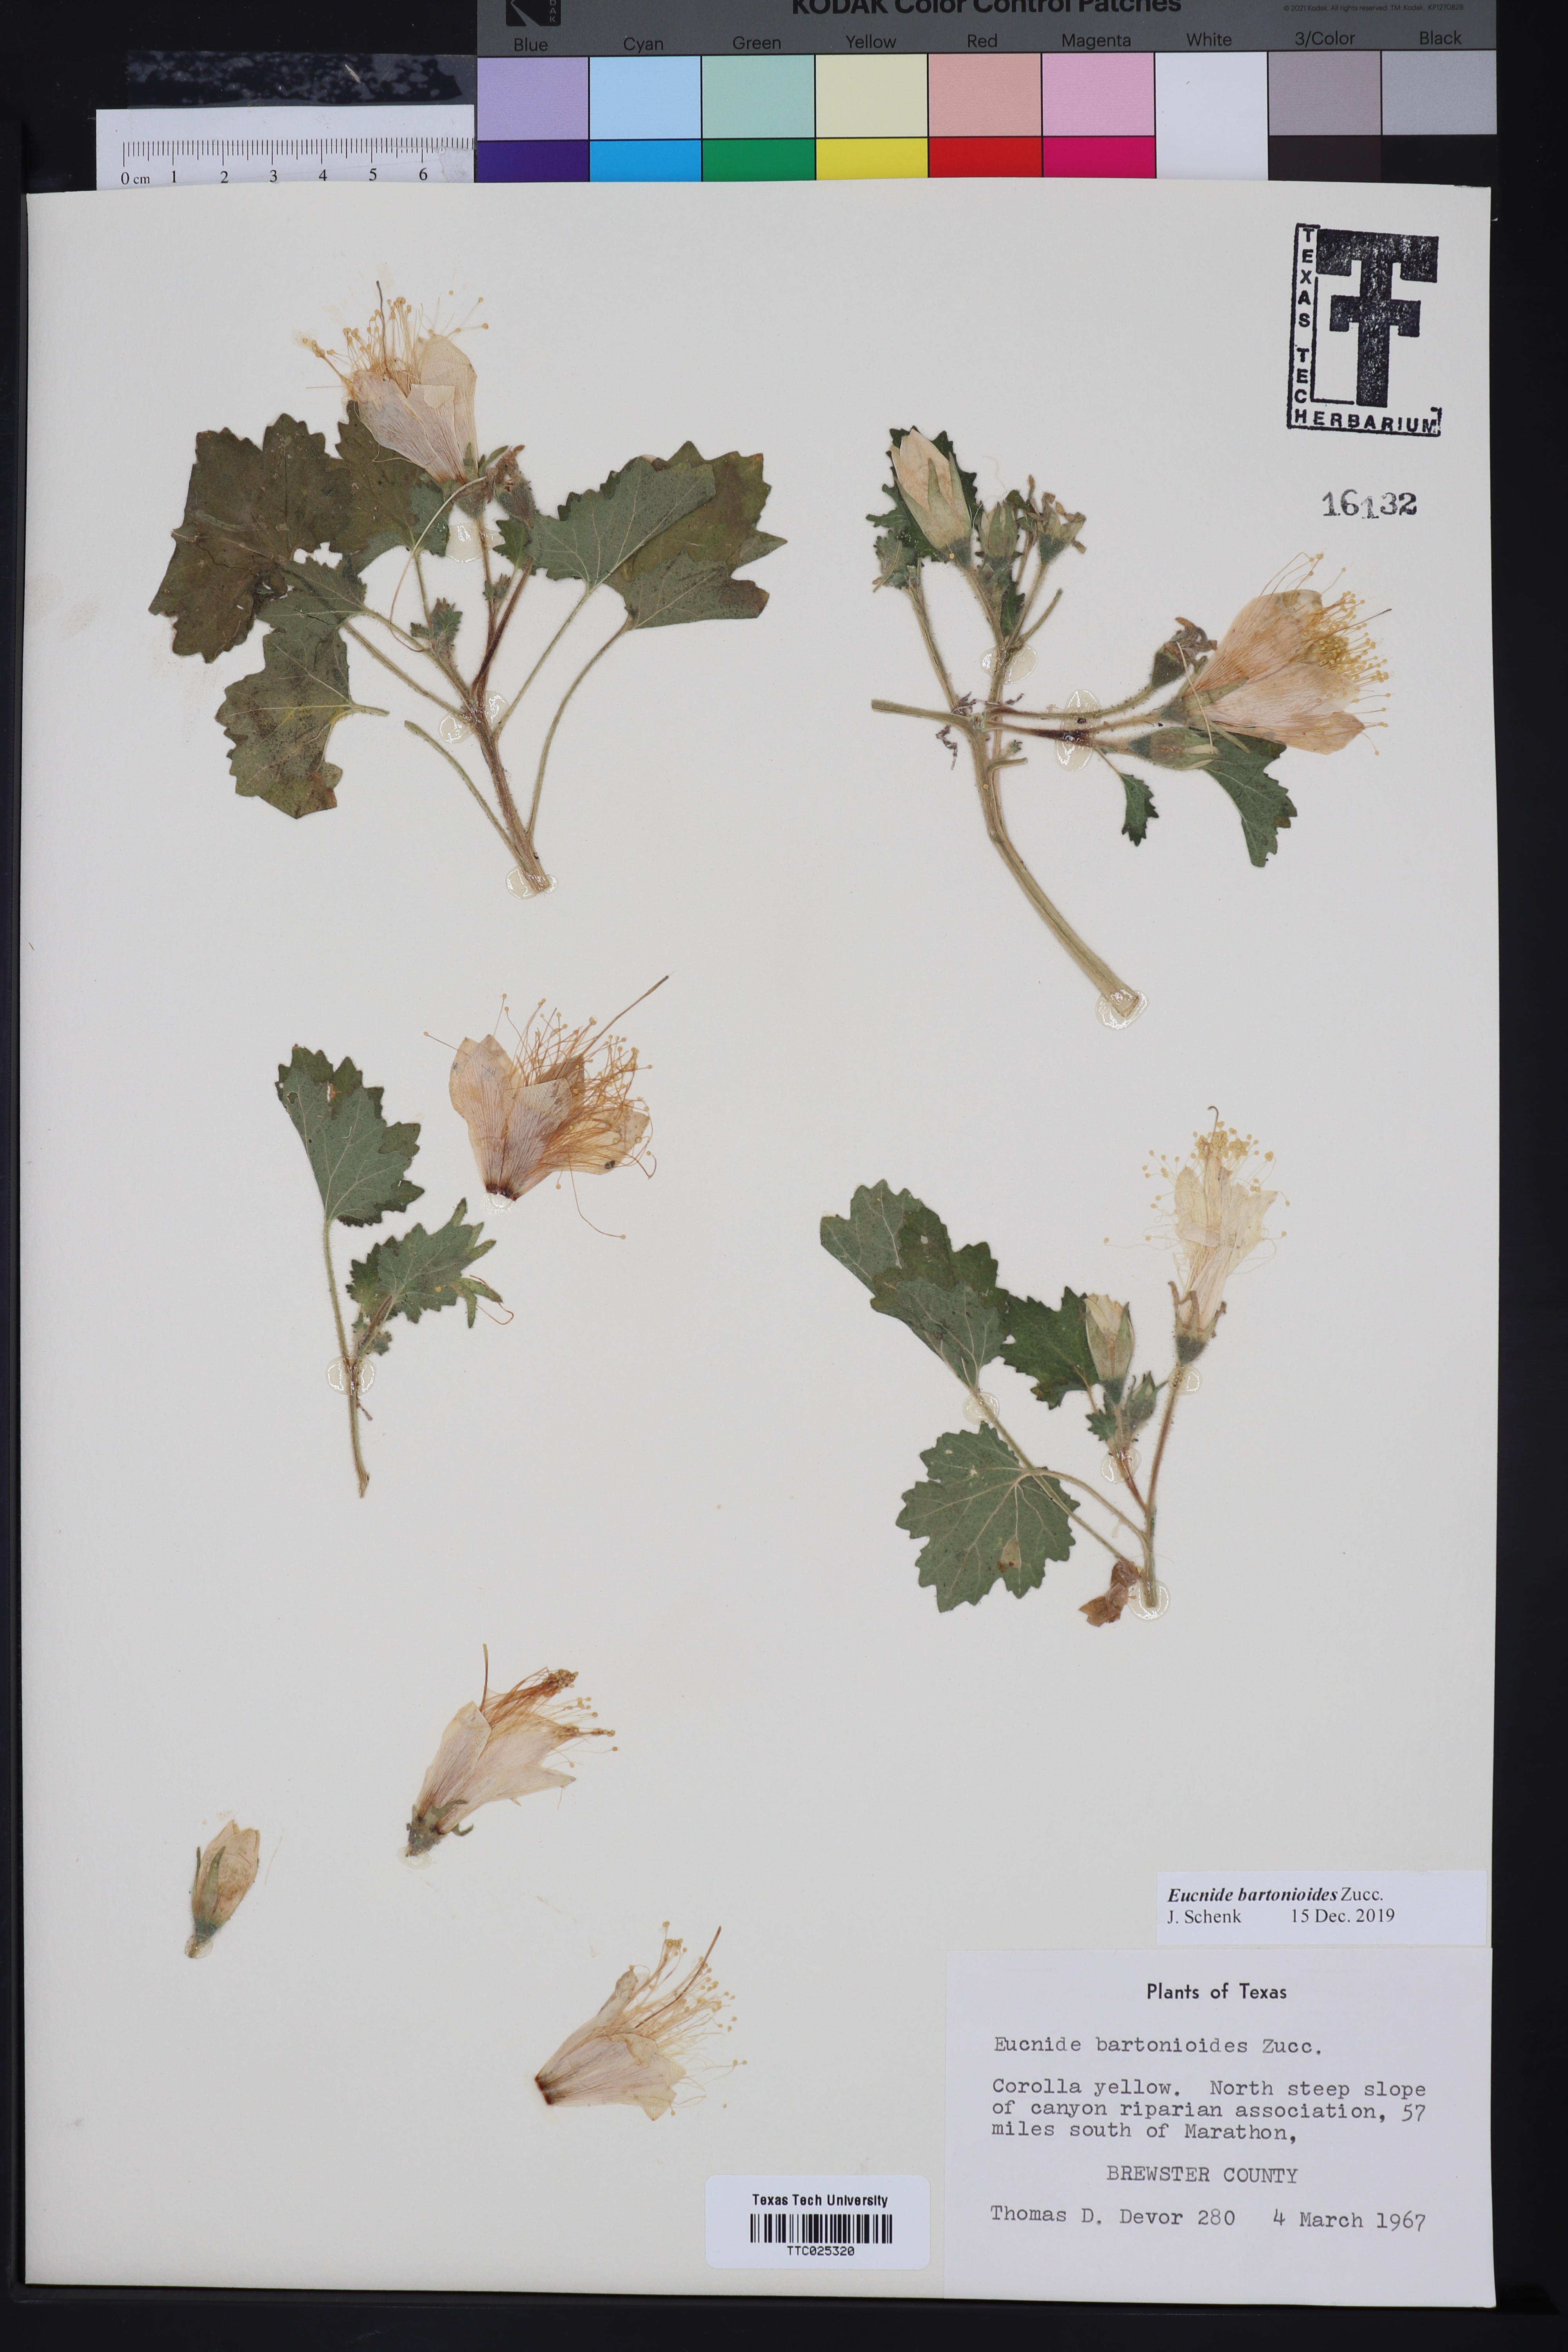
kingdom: Plantae
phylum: Tracheophyta
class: Magnoliopsida
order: Cornales
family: Loasaceae
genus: Eucnide
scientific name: Eucnide bartonioides
